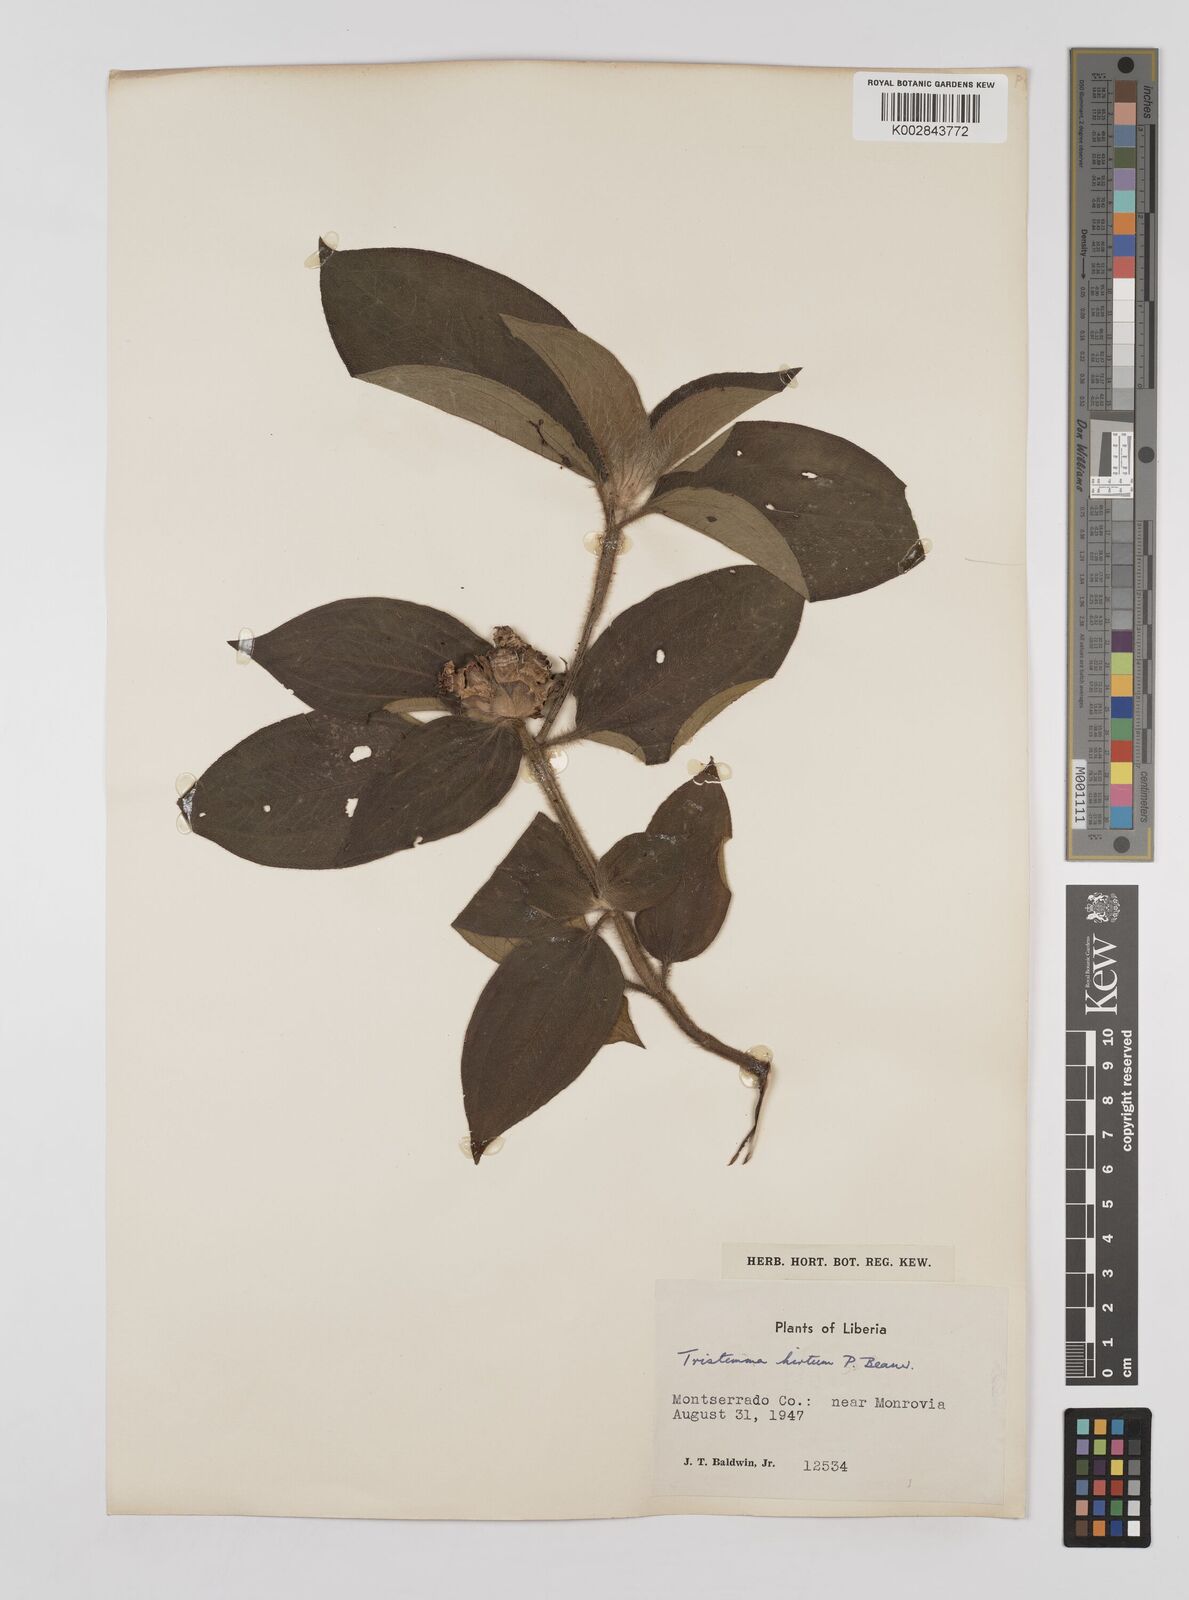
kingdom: Plantae
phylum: Tracheophyta
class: Magnoliopsida
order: Myrtales
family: Melastomataceae
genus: Tristemma
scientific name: Tristemma hirtum
